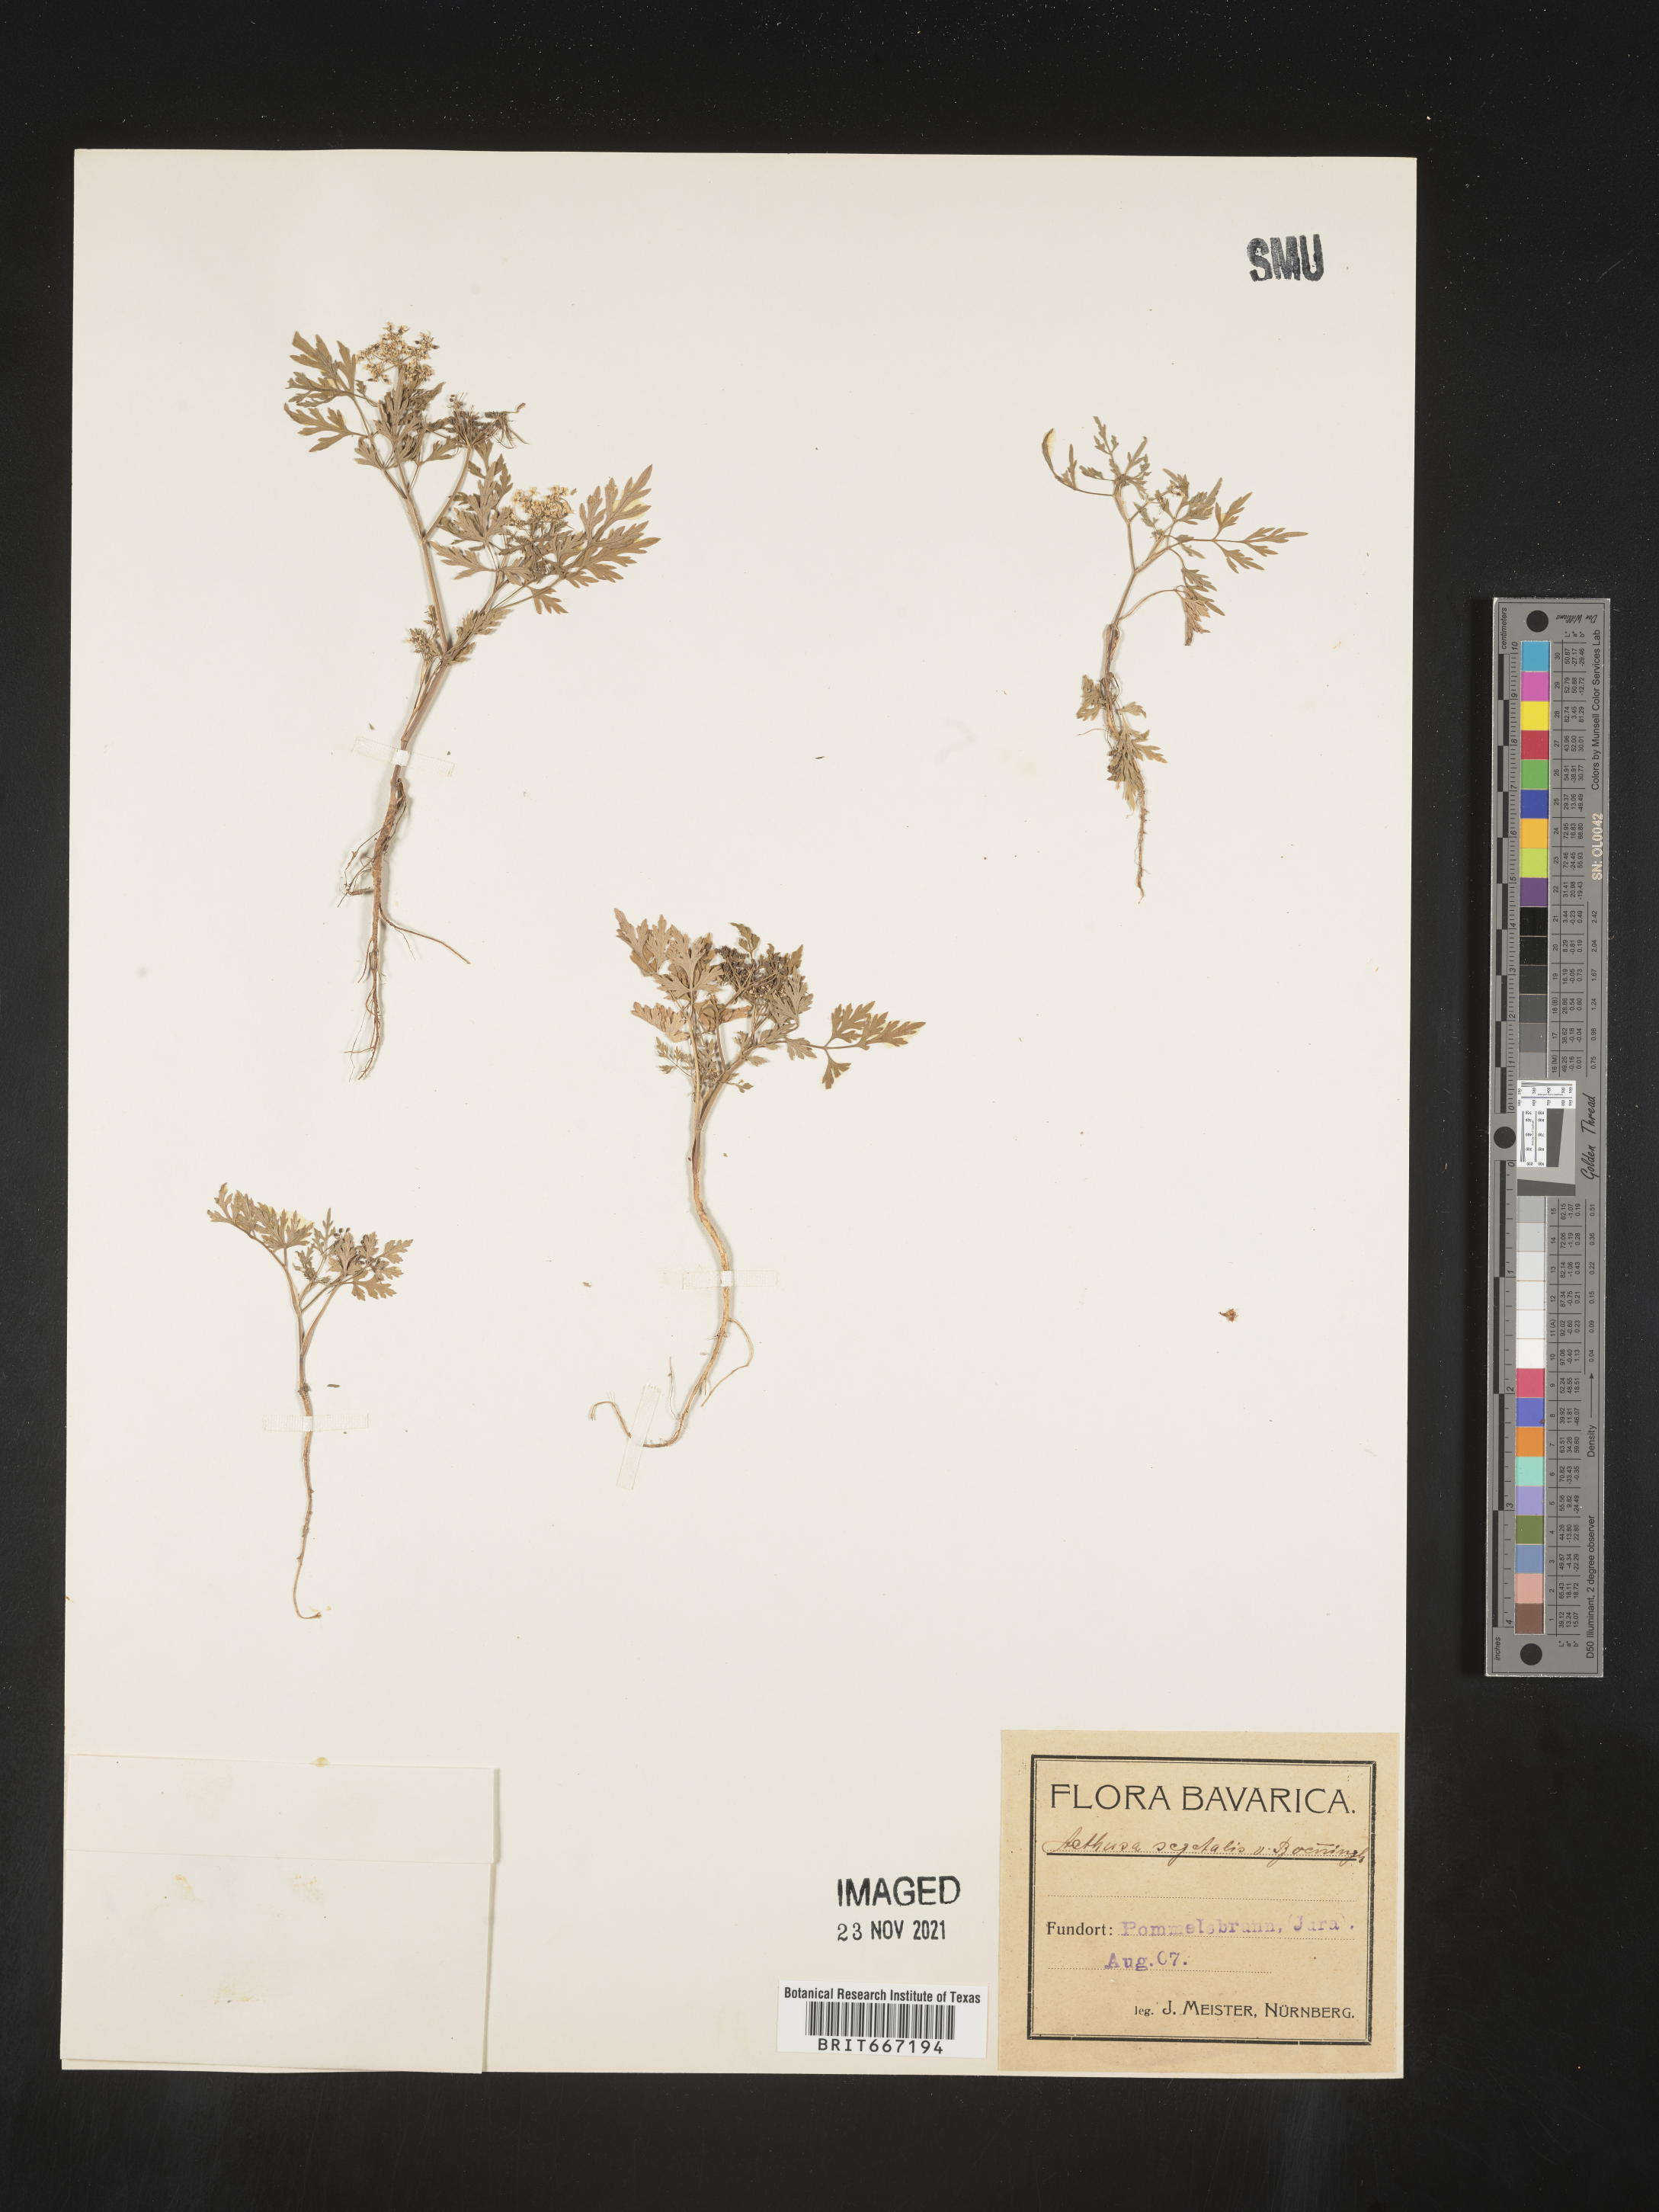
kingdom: Plantae
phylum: Tracheophyta
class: Magnoliopsida
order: Apiales
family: Apiaceae
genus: Aethusa
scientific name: Aethusa
